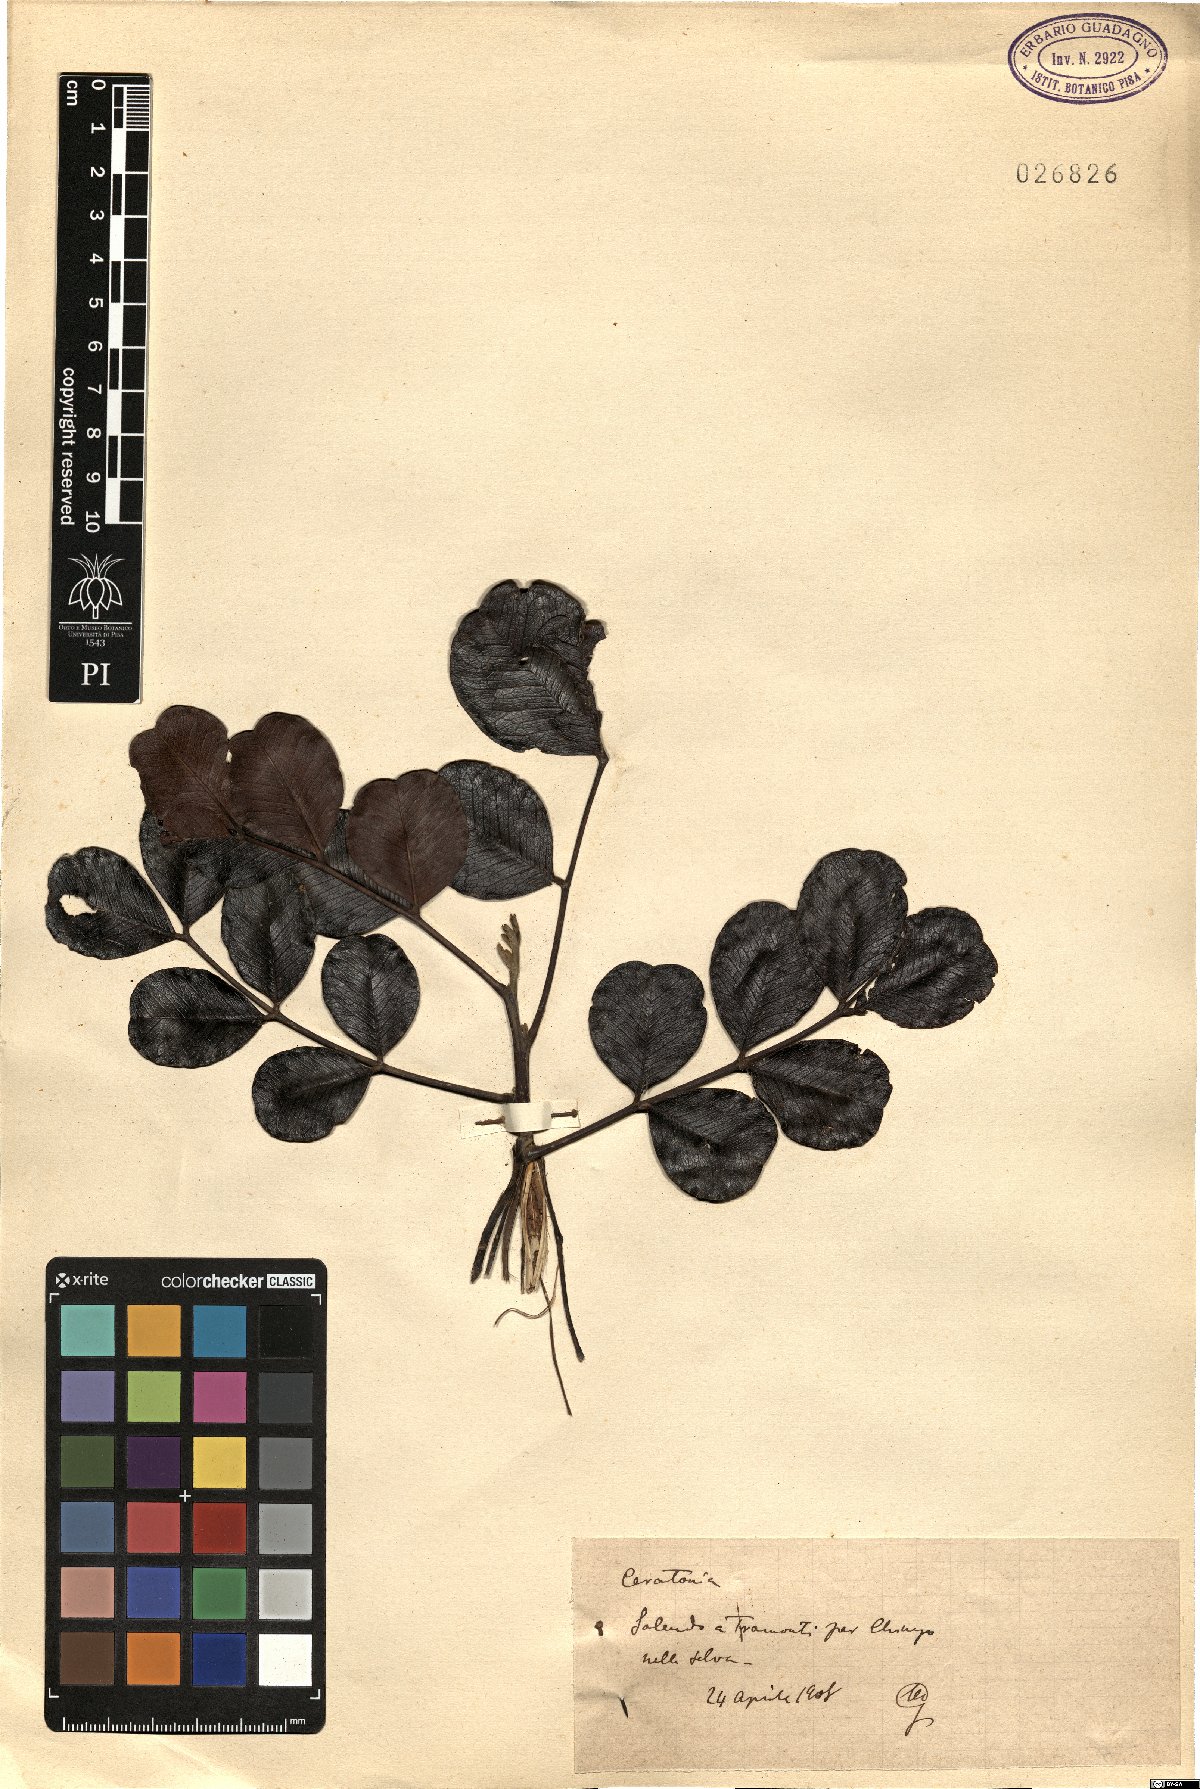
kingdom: Plantae
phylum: Tracheophyta
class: Magnoliopsida
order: Fabales
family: Fabaceae
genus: Ceratonia
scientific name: Ceratonia
